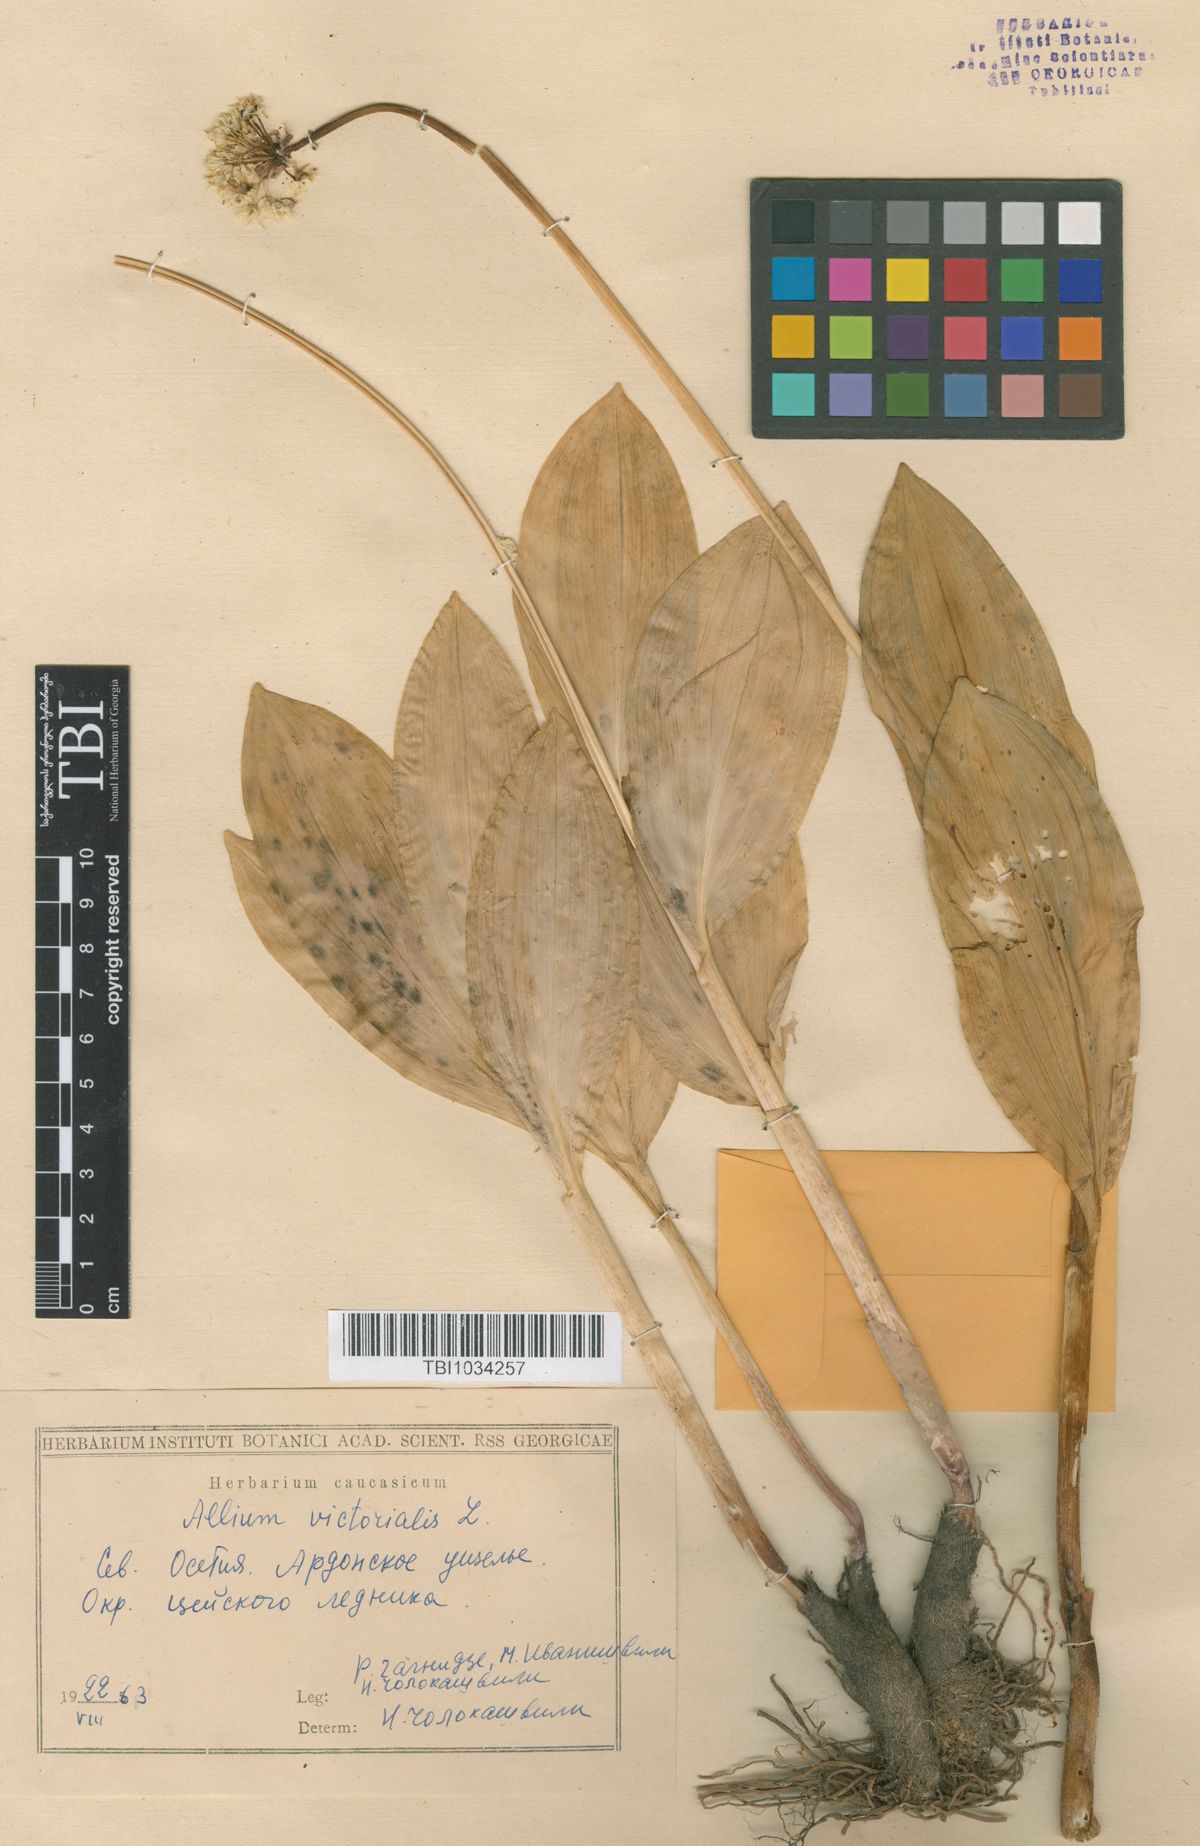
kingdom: Plantae
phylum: Tracheophyta
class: Liliopsida
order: Asparagales
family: Amaryllidaceae
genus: Allium
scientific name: Allium victorialis
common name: Alpine leek
